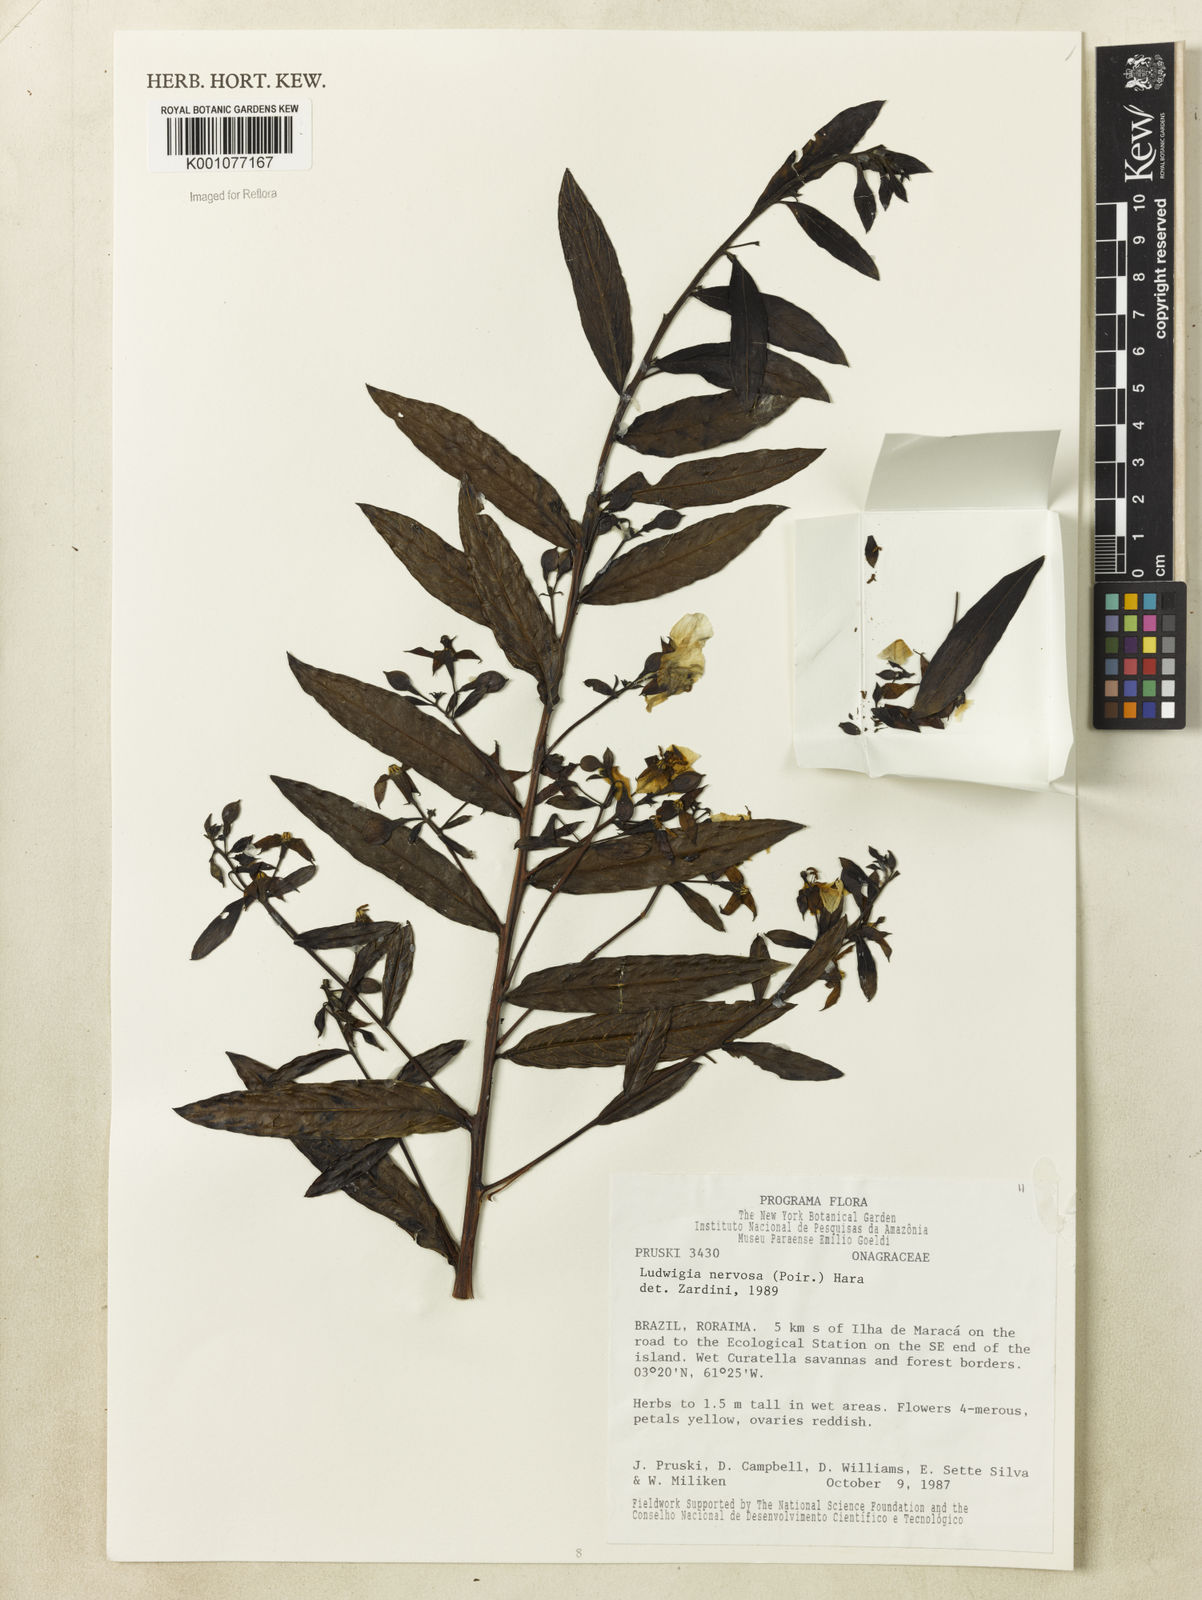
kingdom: Plantae
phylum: Tracheophyta
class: Magnoliopsida
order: Myrtales
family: Onagraceae
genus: Ludwigia
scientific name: Ludwigia nervosa
